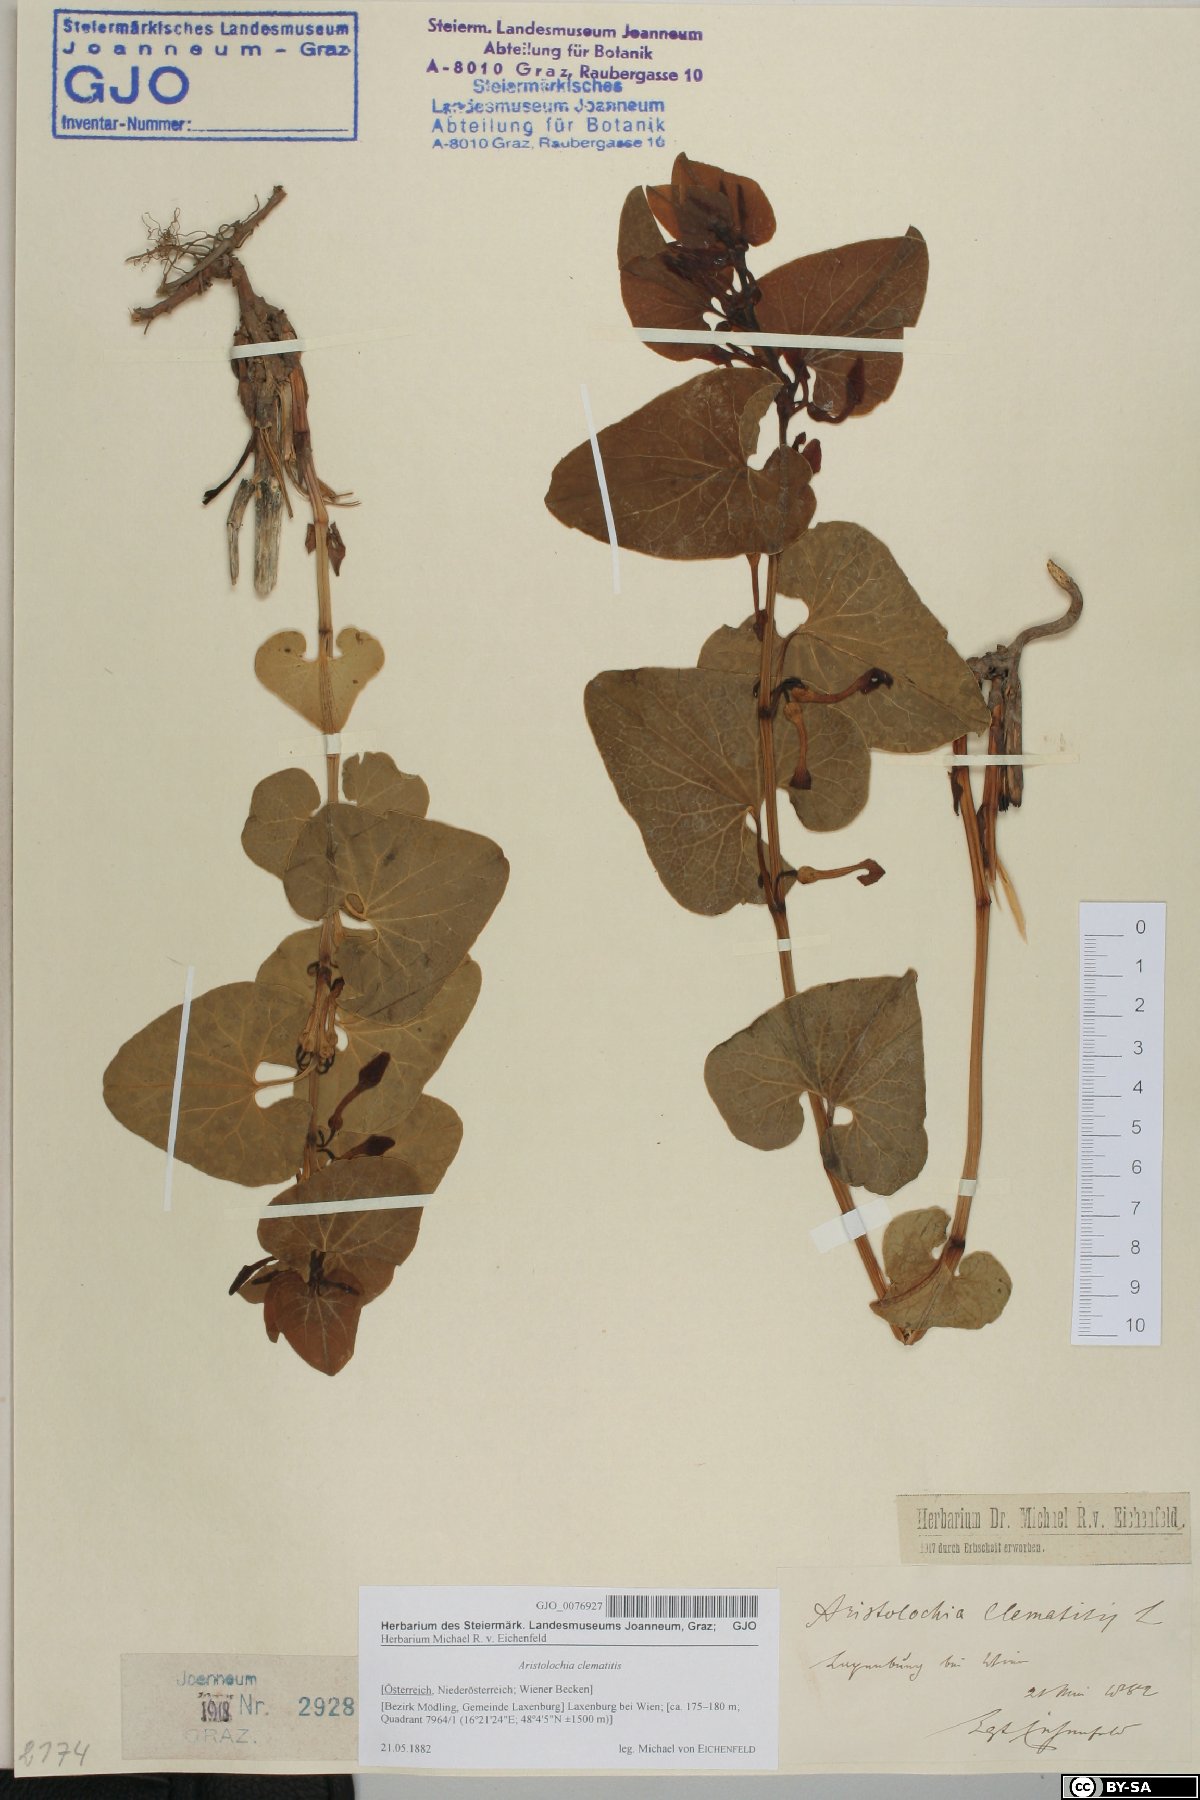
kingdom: Plantae
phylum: Tracheophyta
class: Magnoliopsida
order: Piperales
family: Aristolochiaceae
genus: Aristolochia
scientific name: Aristolochia clematitis
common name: Birthwort
